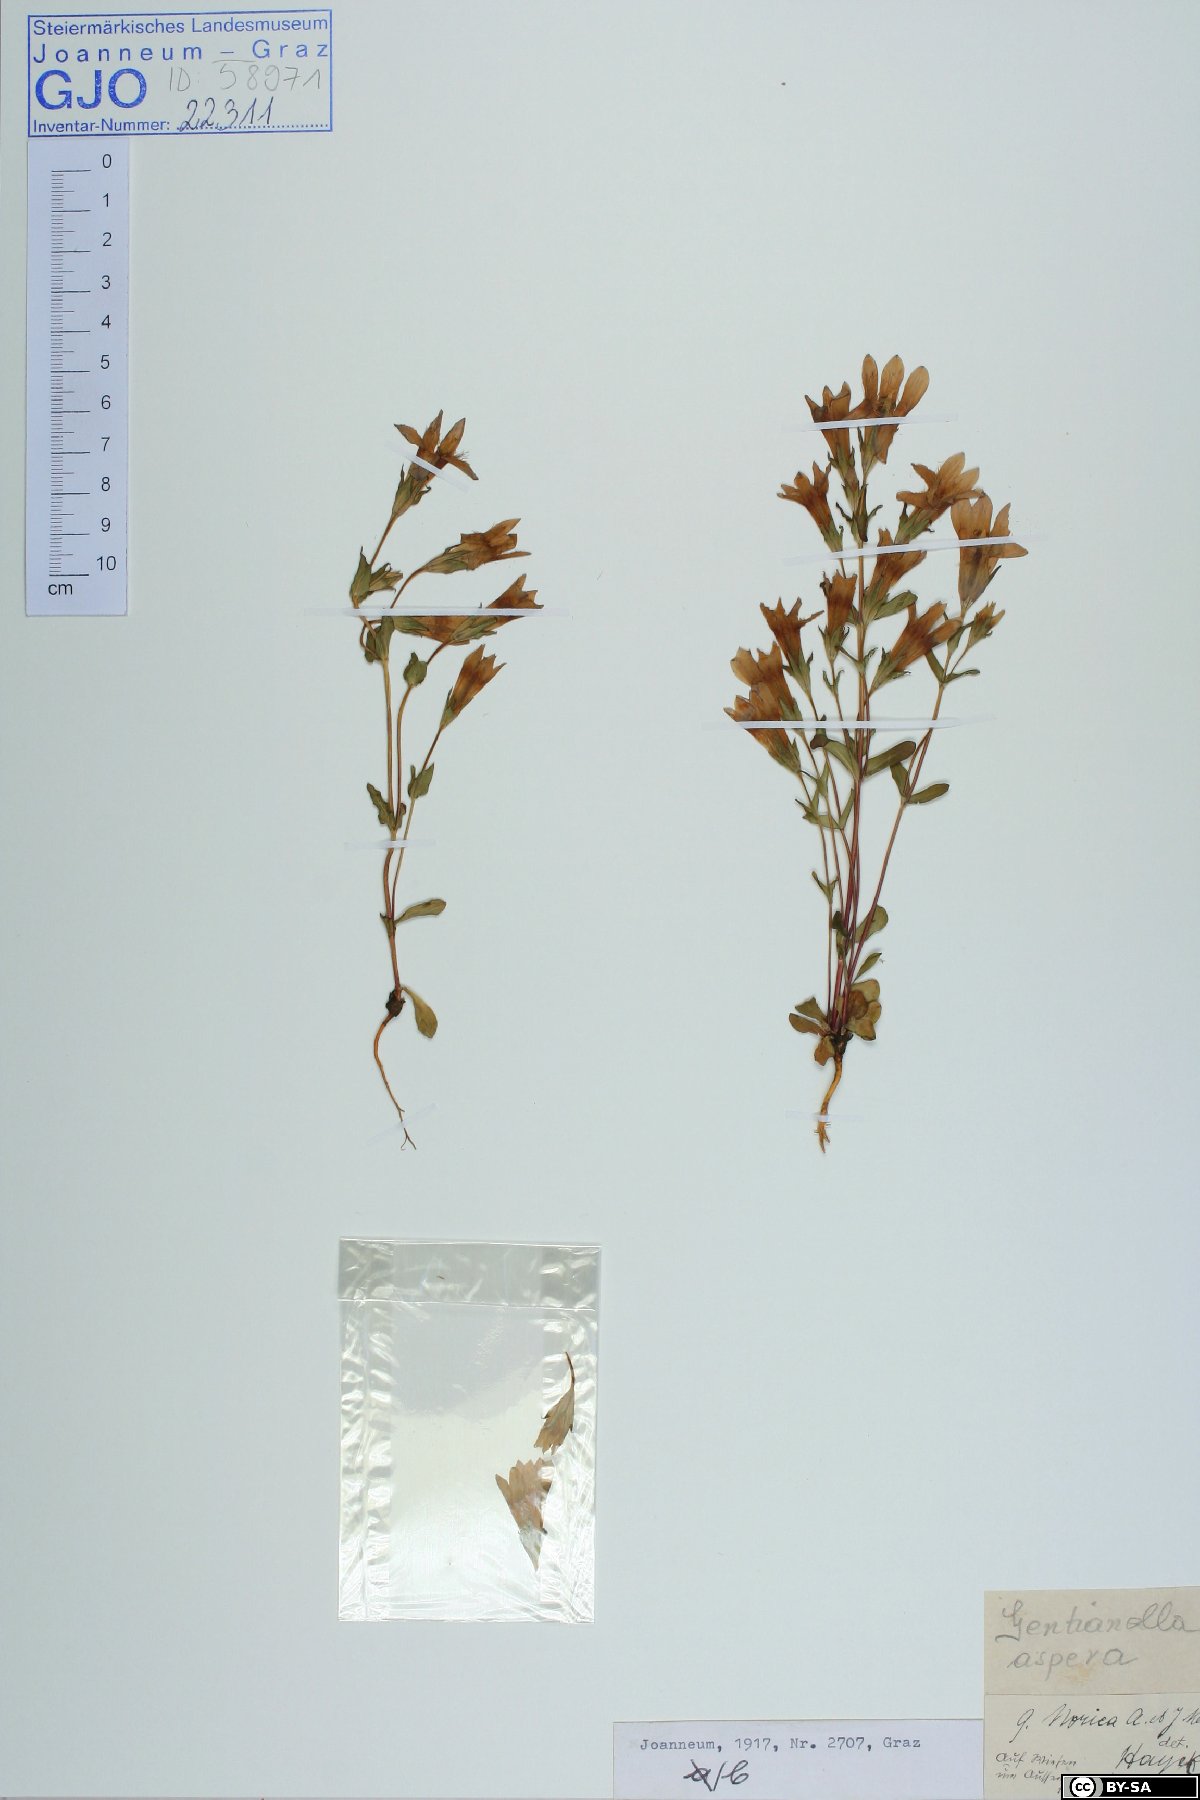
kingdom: Plantae
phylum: Tracheophyta
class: Magnoliopsida
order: Gentianales
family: Gentianaceae
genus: Gentianella
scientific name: Gentianella obtusifolia
